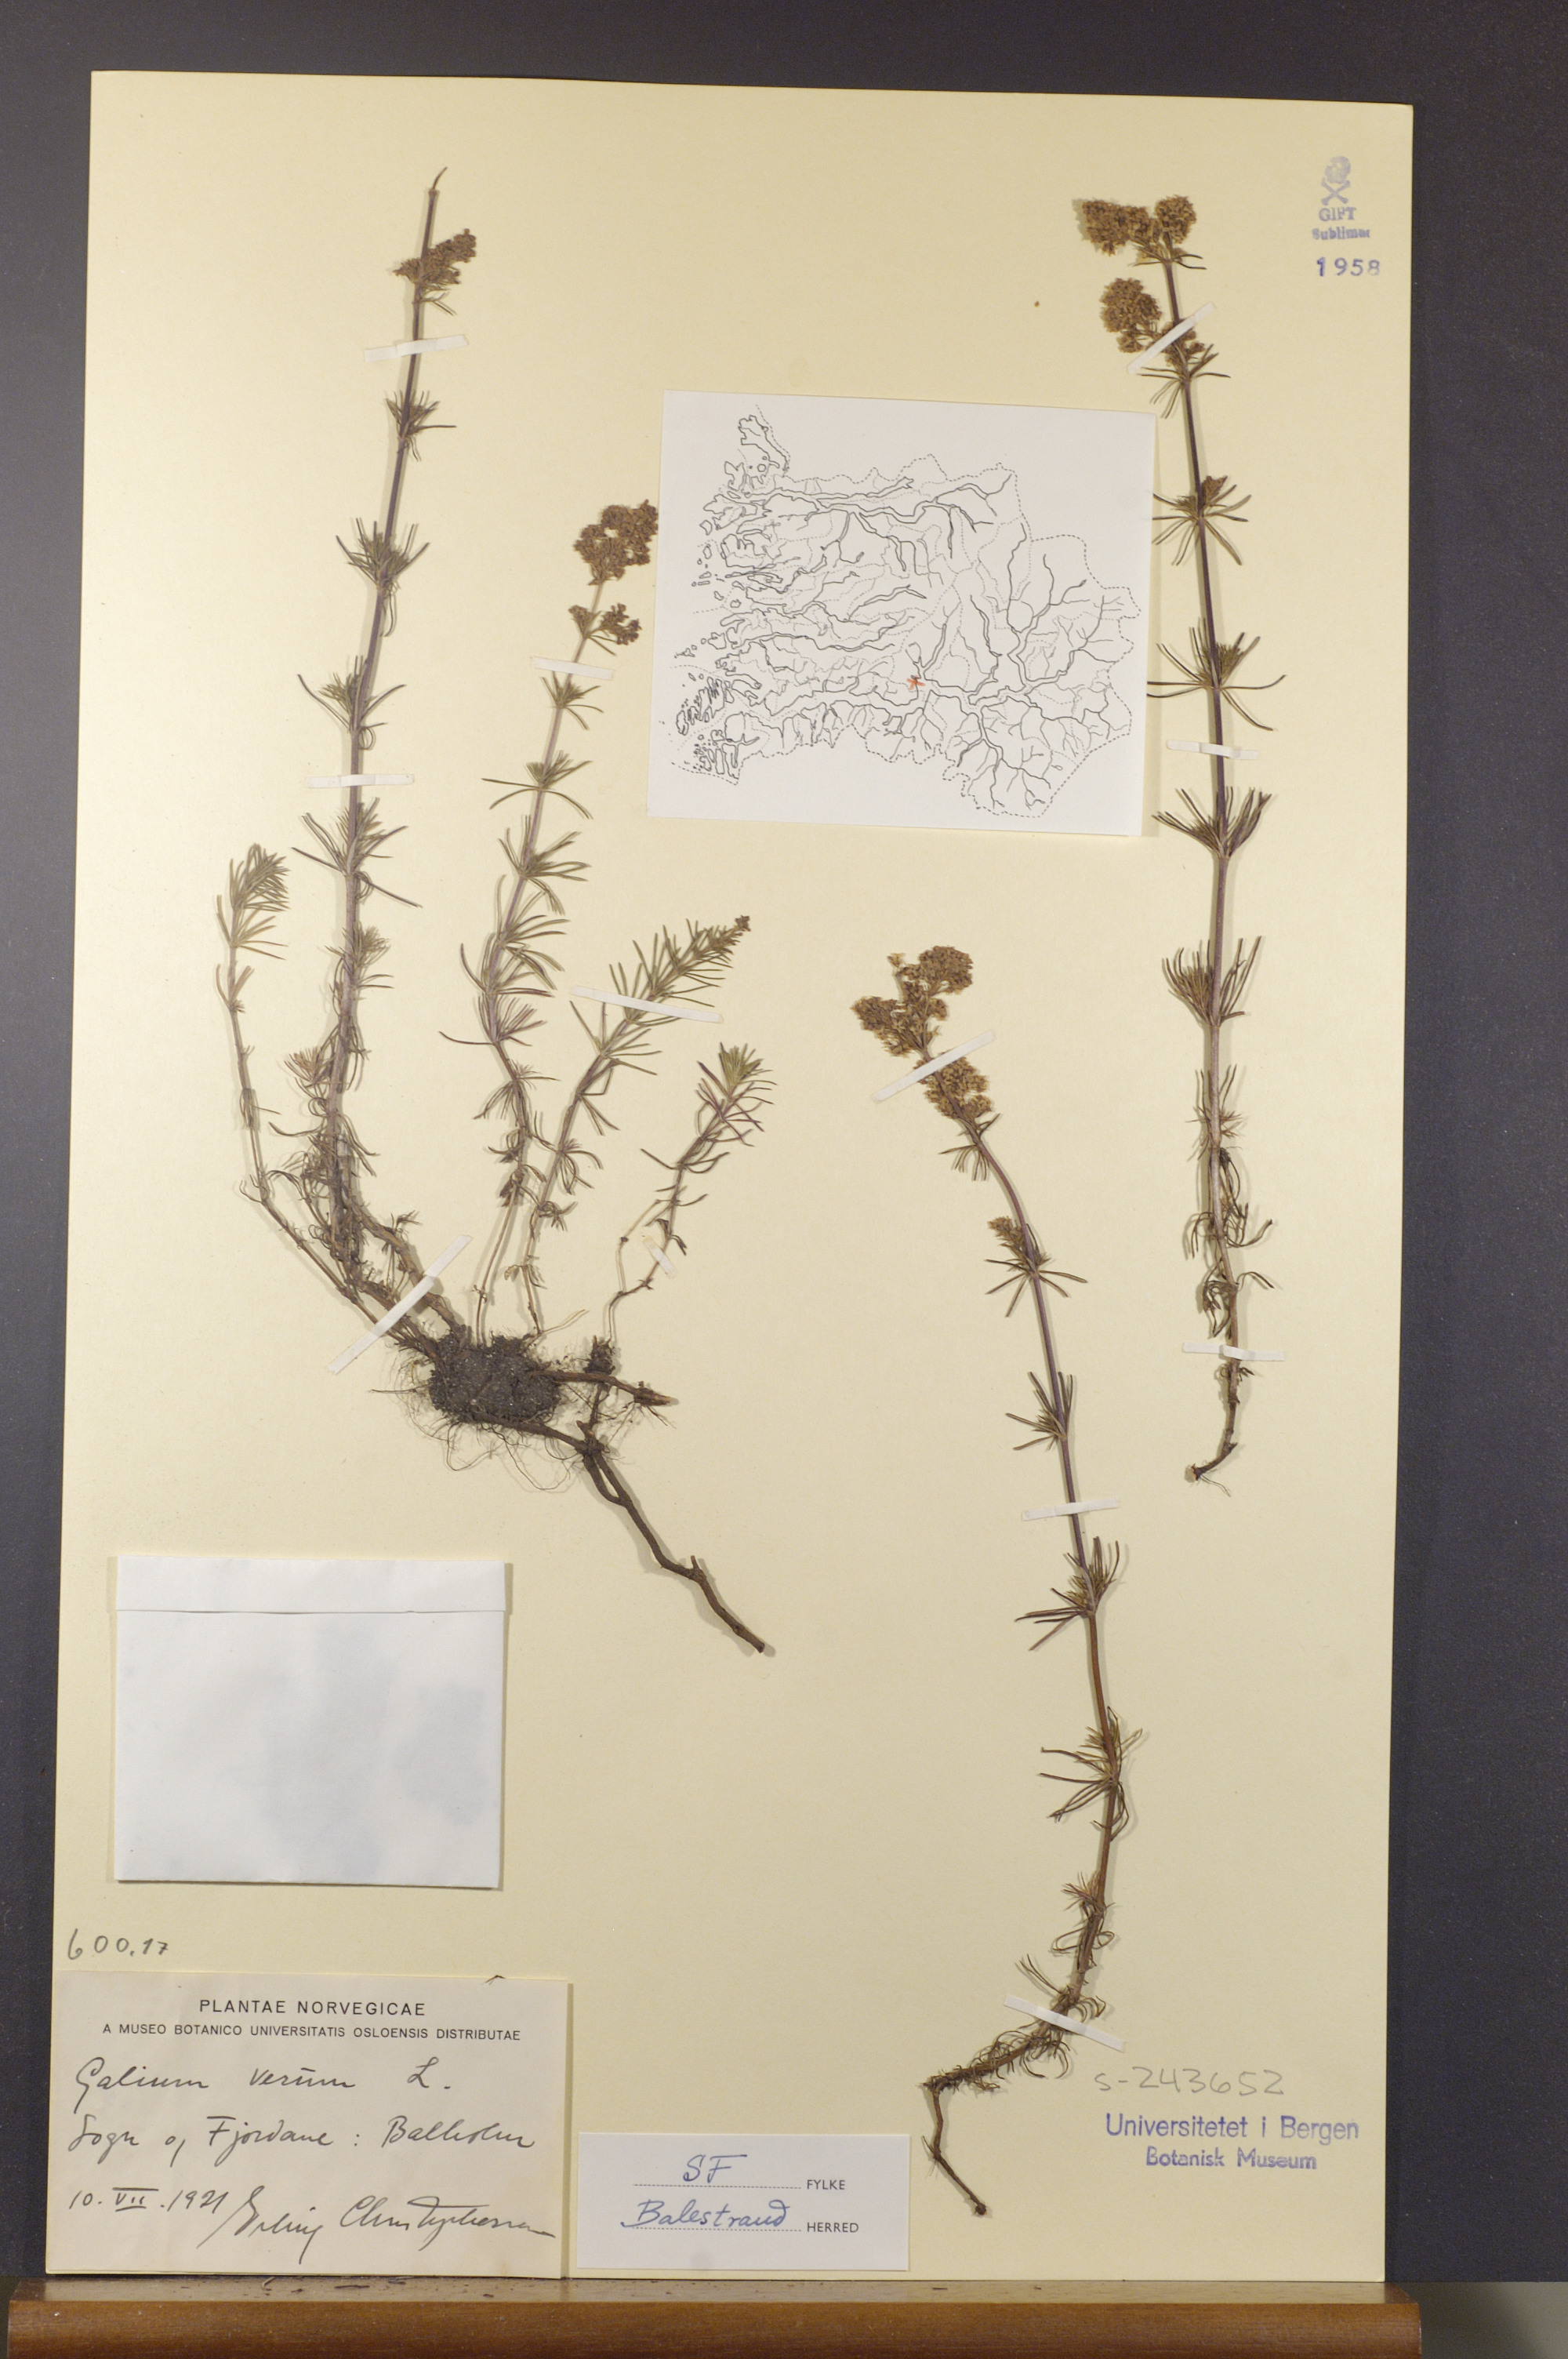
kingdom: Plantae
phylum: Tracheophyta
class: Magnoliopsida
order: Gentianales
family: Rubiaceae
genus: Galium
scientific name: Galium verum
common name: Lady's bedstraw
